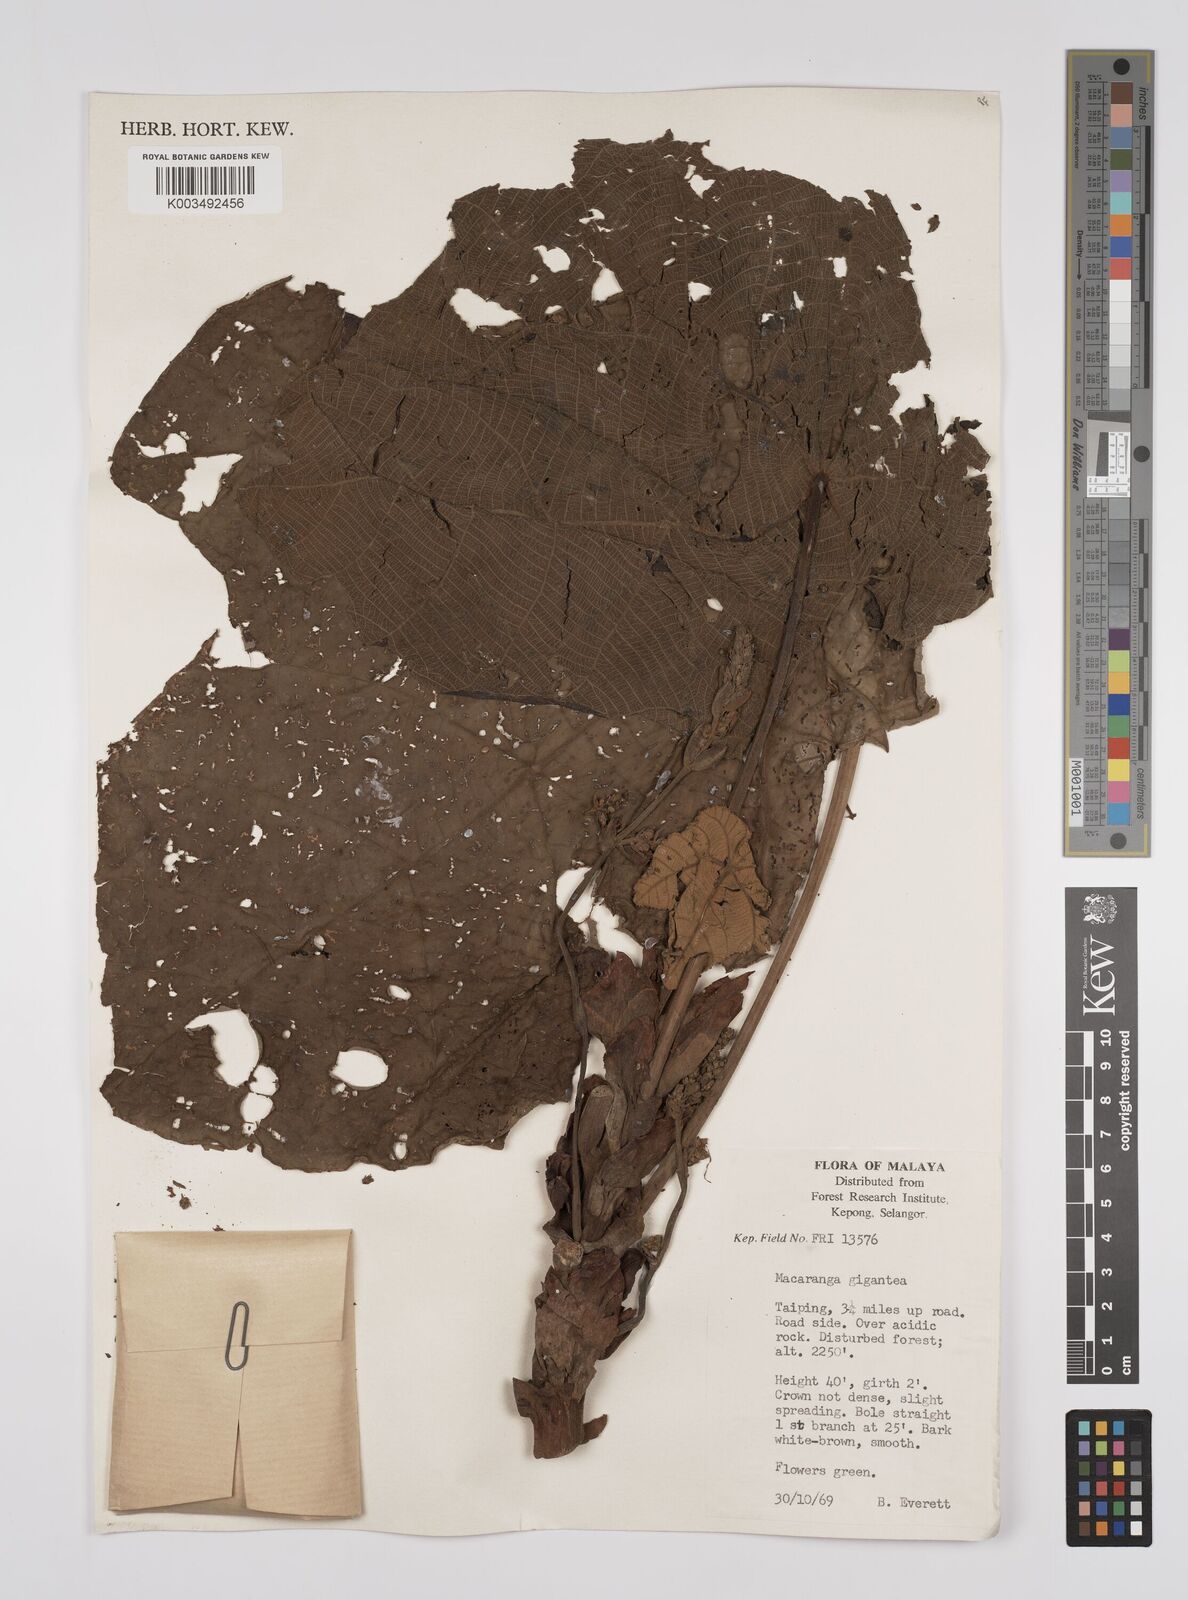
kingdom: Plantae
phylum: Tracheophyta
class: Magnoliopsida
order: Malpighiales
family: Euphorbiaceae
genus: Macaranga
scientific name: Macaranga gigantea
